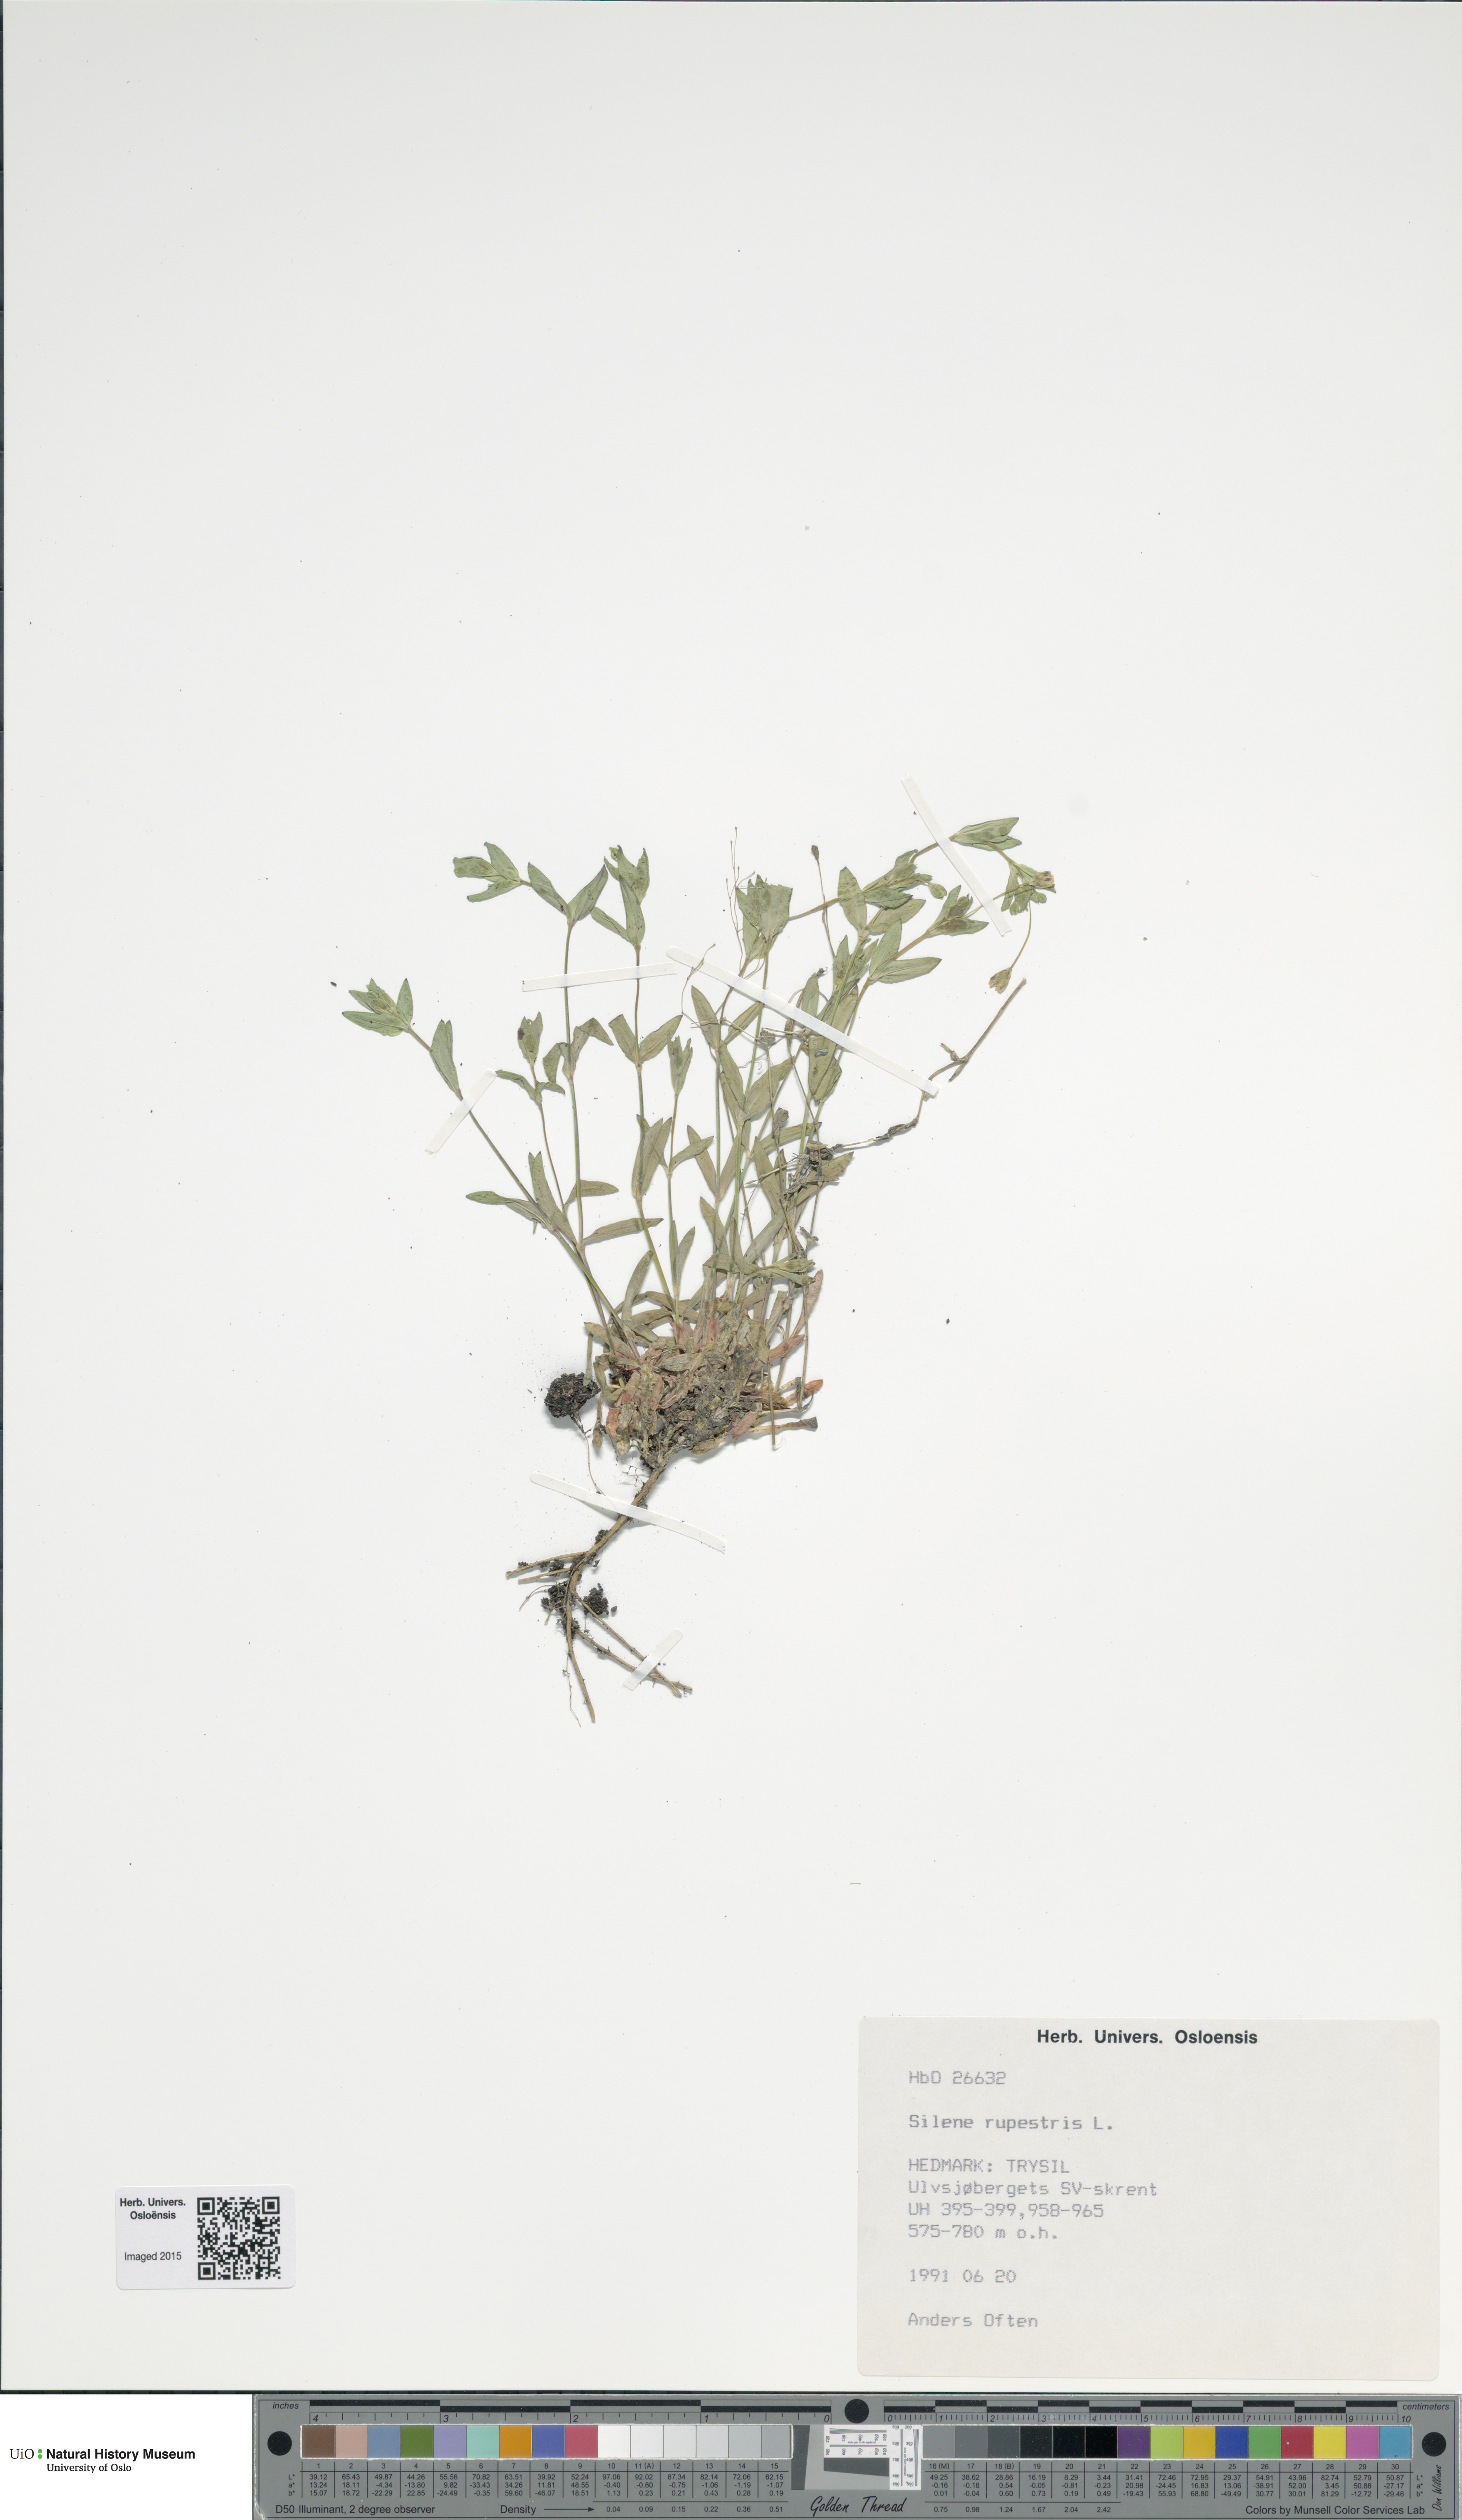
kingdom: Plantae
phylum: Tracheophyta
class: Magnoliopsida
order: Caryophyllales
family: Caryophyllaceae
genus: Atocion
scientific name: Atocion rupestre
